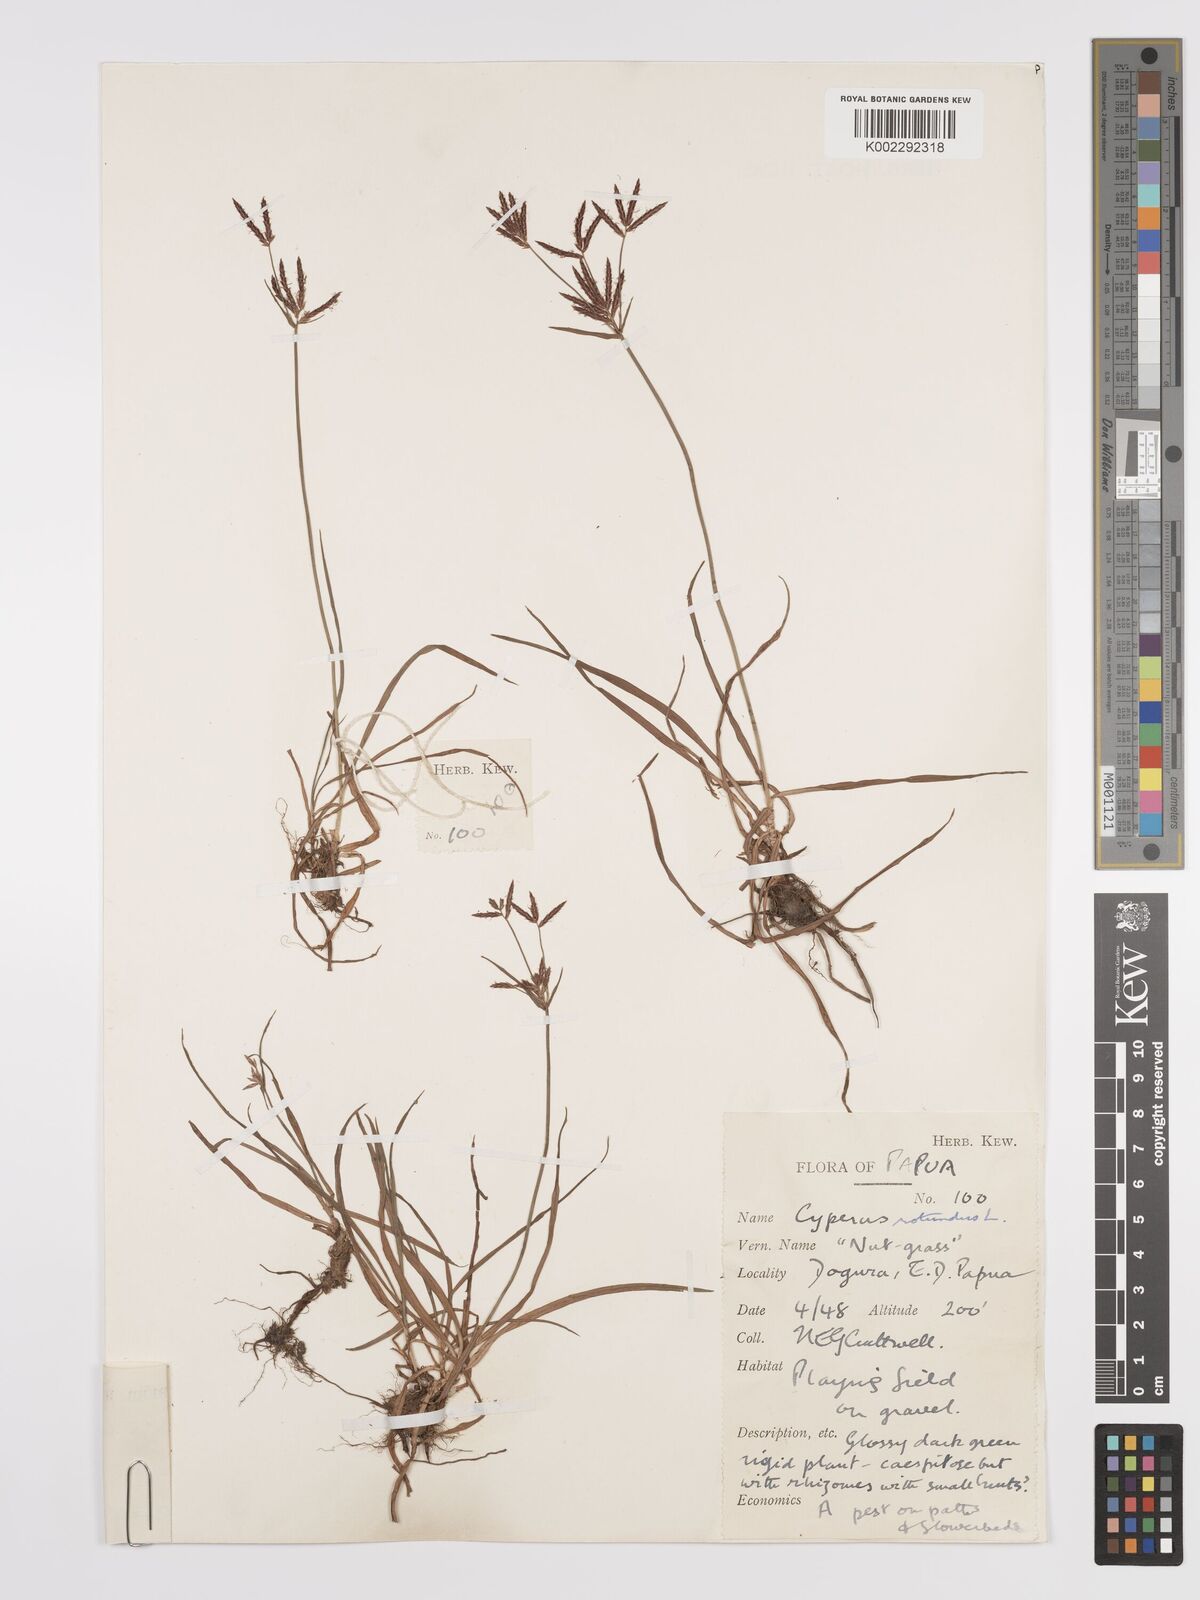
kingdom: Plantae
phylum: Tracheophyta
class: Liliopsida
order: Poales
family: Cyperaceae
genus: Cyperus
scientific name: Cyperus rotundus
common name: Nutgrass
